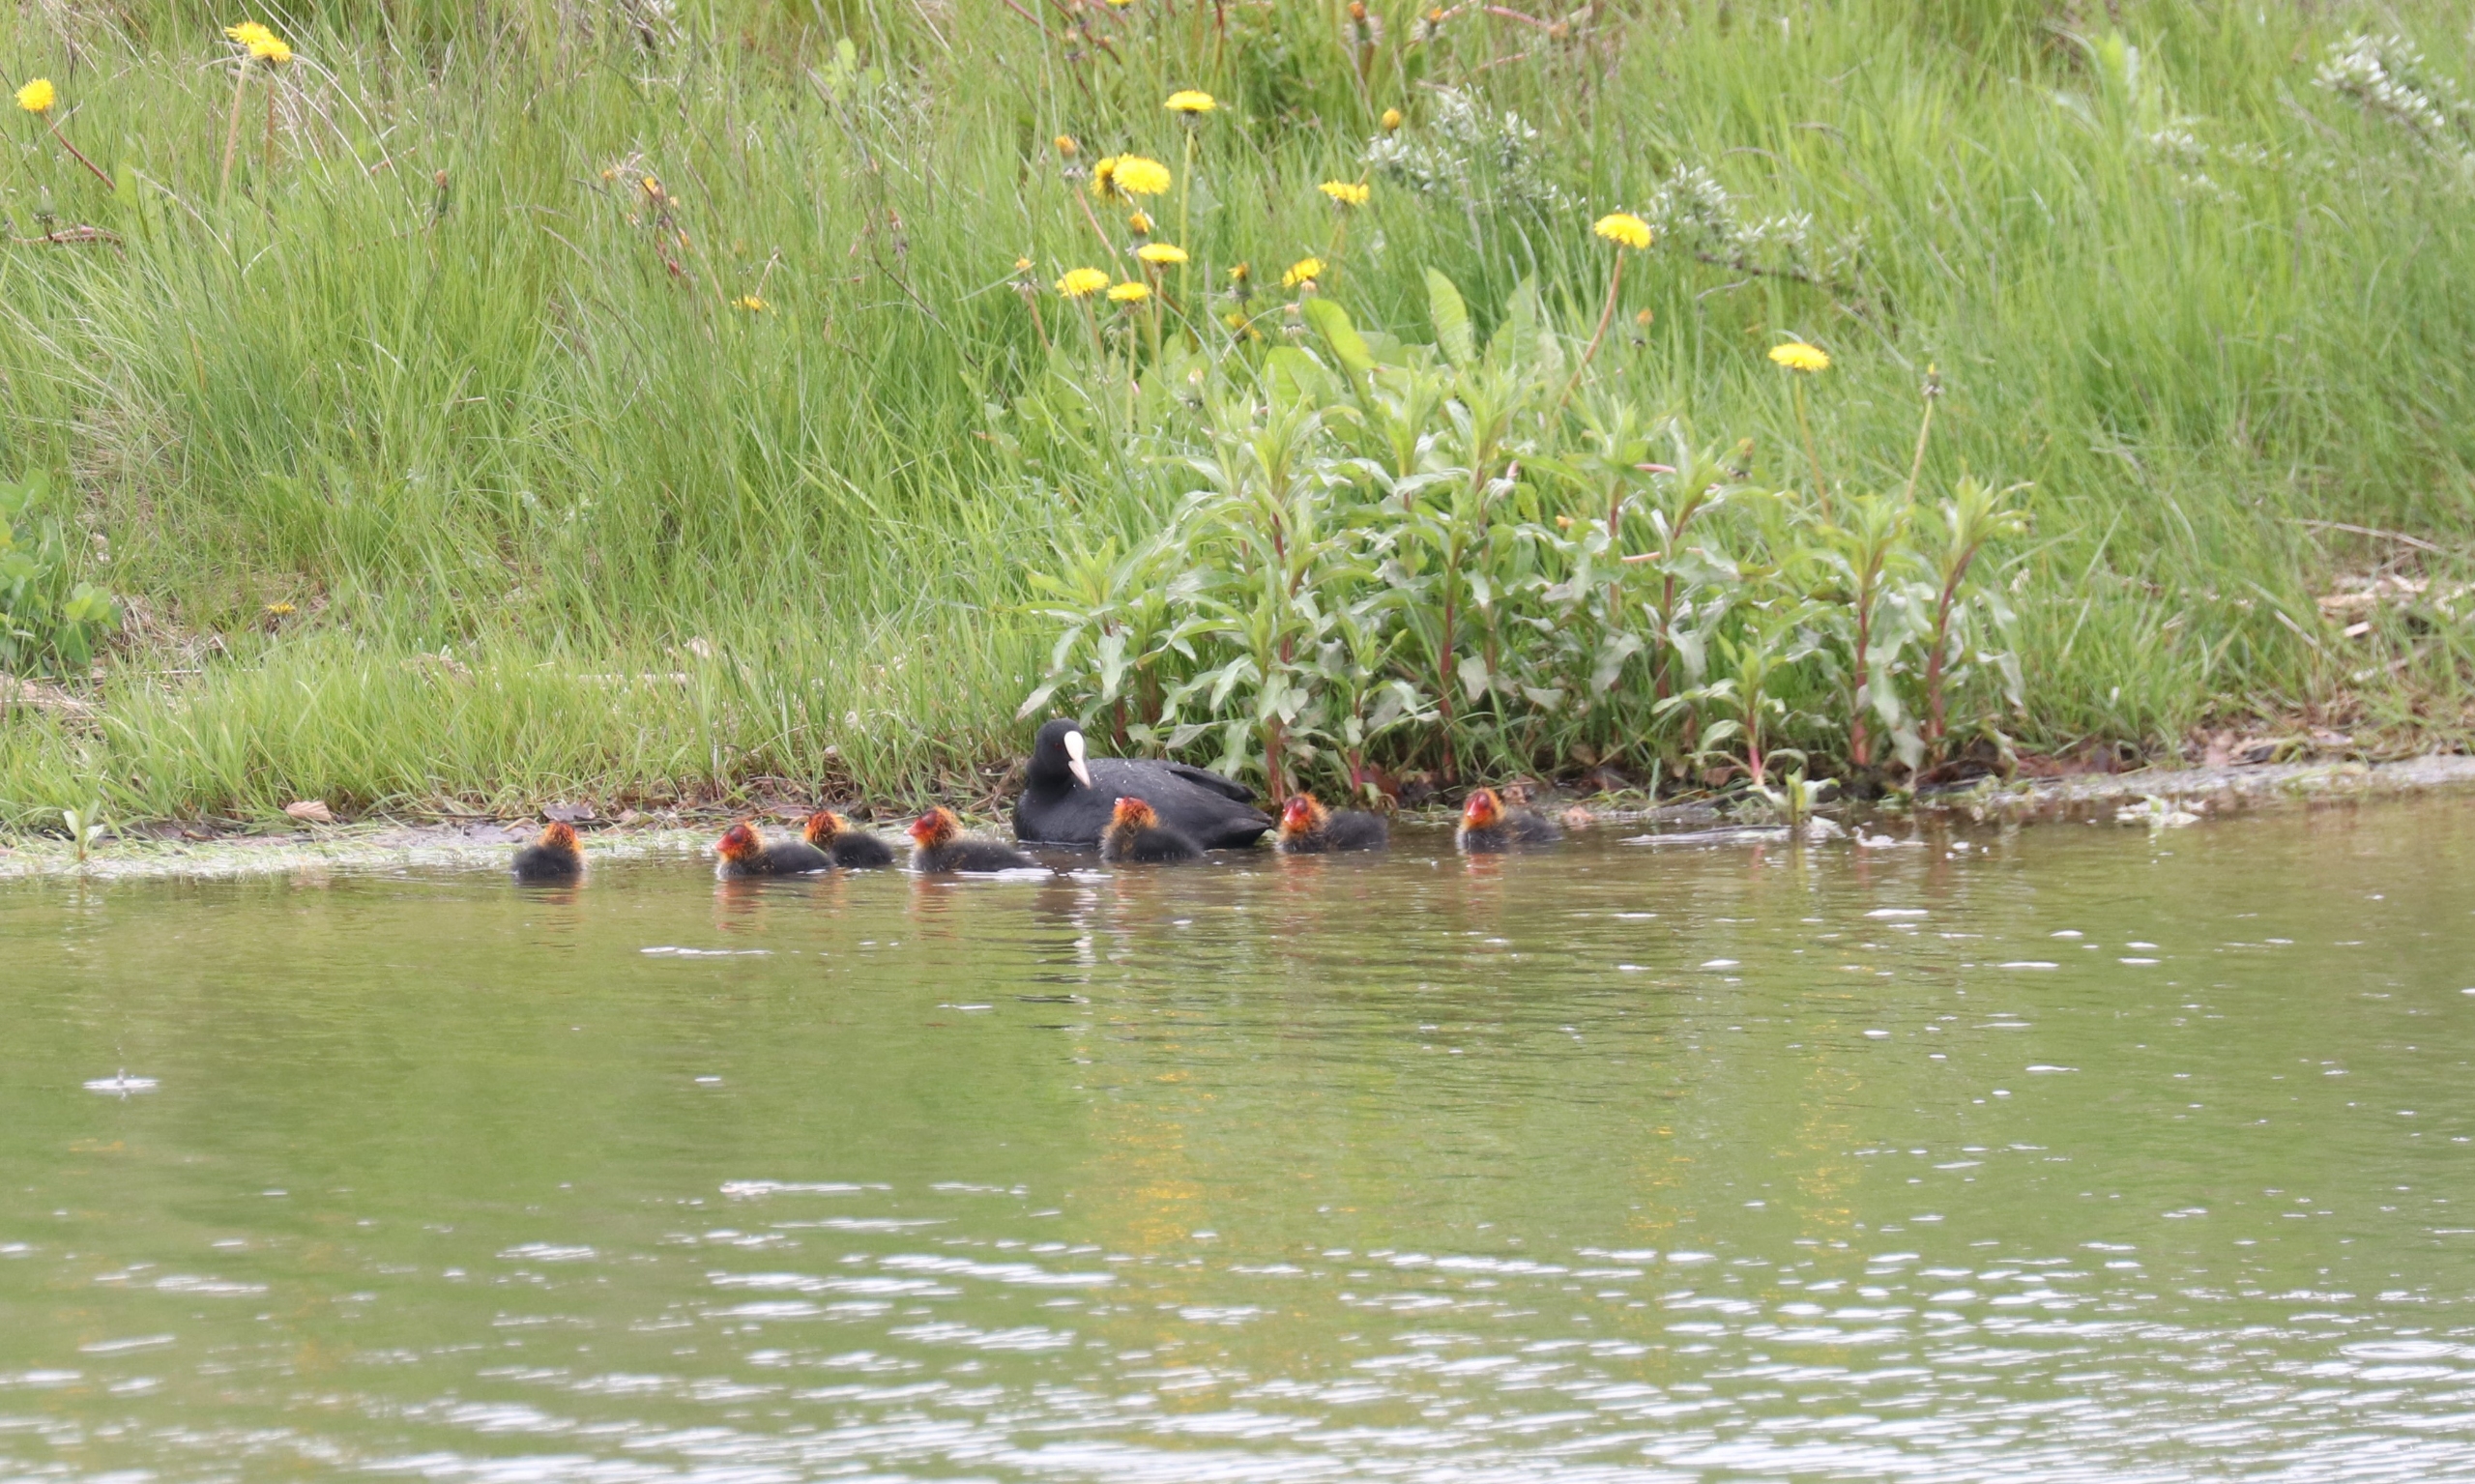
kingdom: Animalia
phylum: Chordata
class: Aves
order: Gruiformes
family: Rallidae
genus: Fulica
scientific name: Fulica atra
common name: Blishøne
